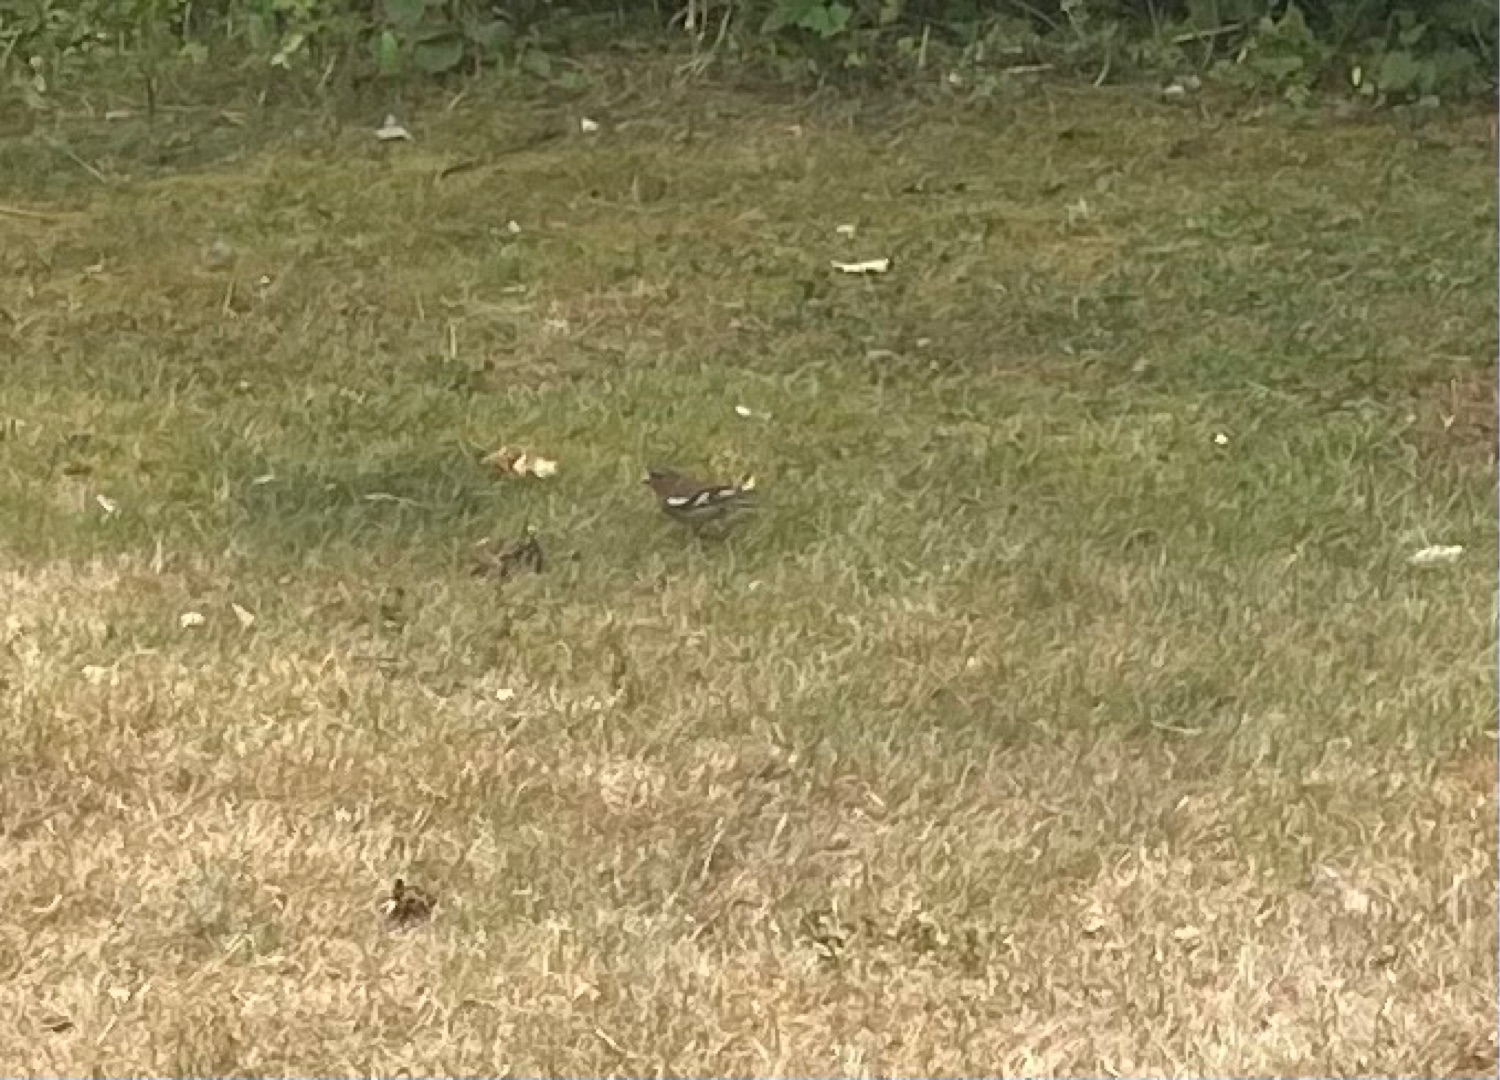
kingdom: Animalia
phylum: Chordata
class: Aves
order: Passeriformes
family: Fringillidae
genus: Fringilla
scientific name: Fringilla coelebs
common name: Bogfinke
